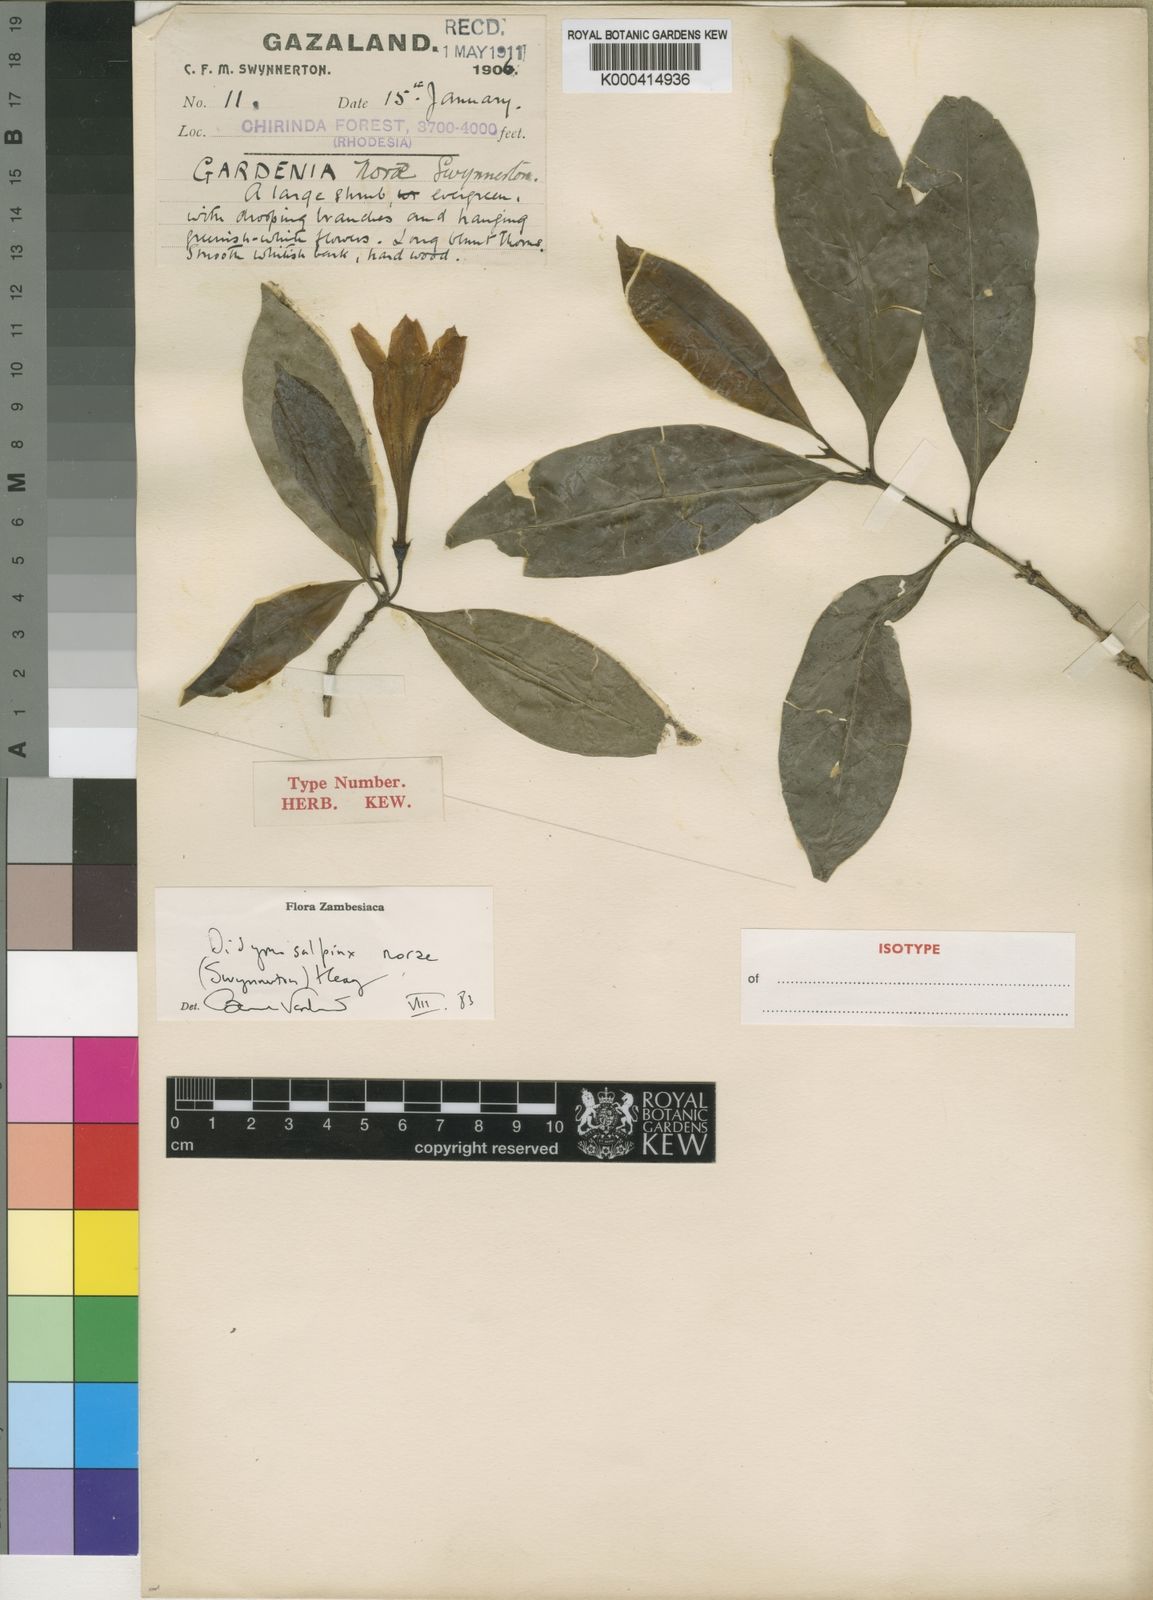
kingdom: Plantae
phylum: Tracheophyta
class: Magnoliopsida
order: Gentianales
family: Rubiaceae
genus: Didymosalpinx
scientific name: Didymosalpinx norae
